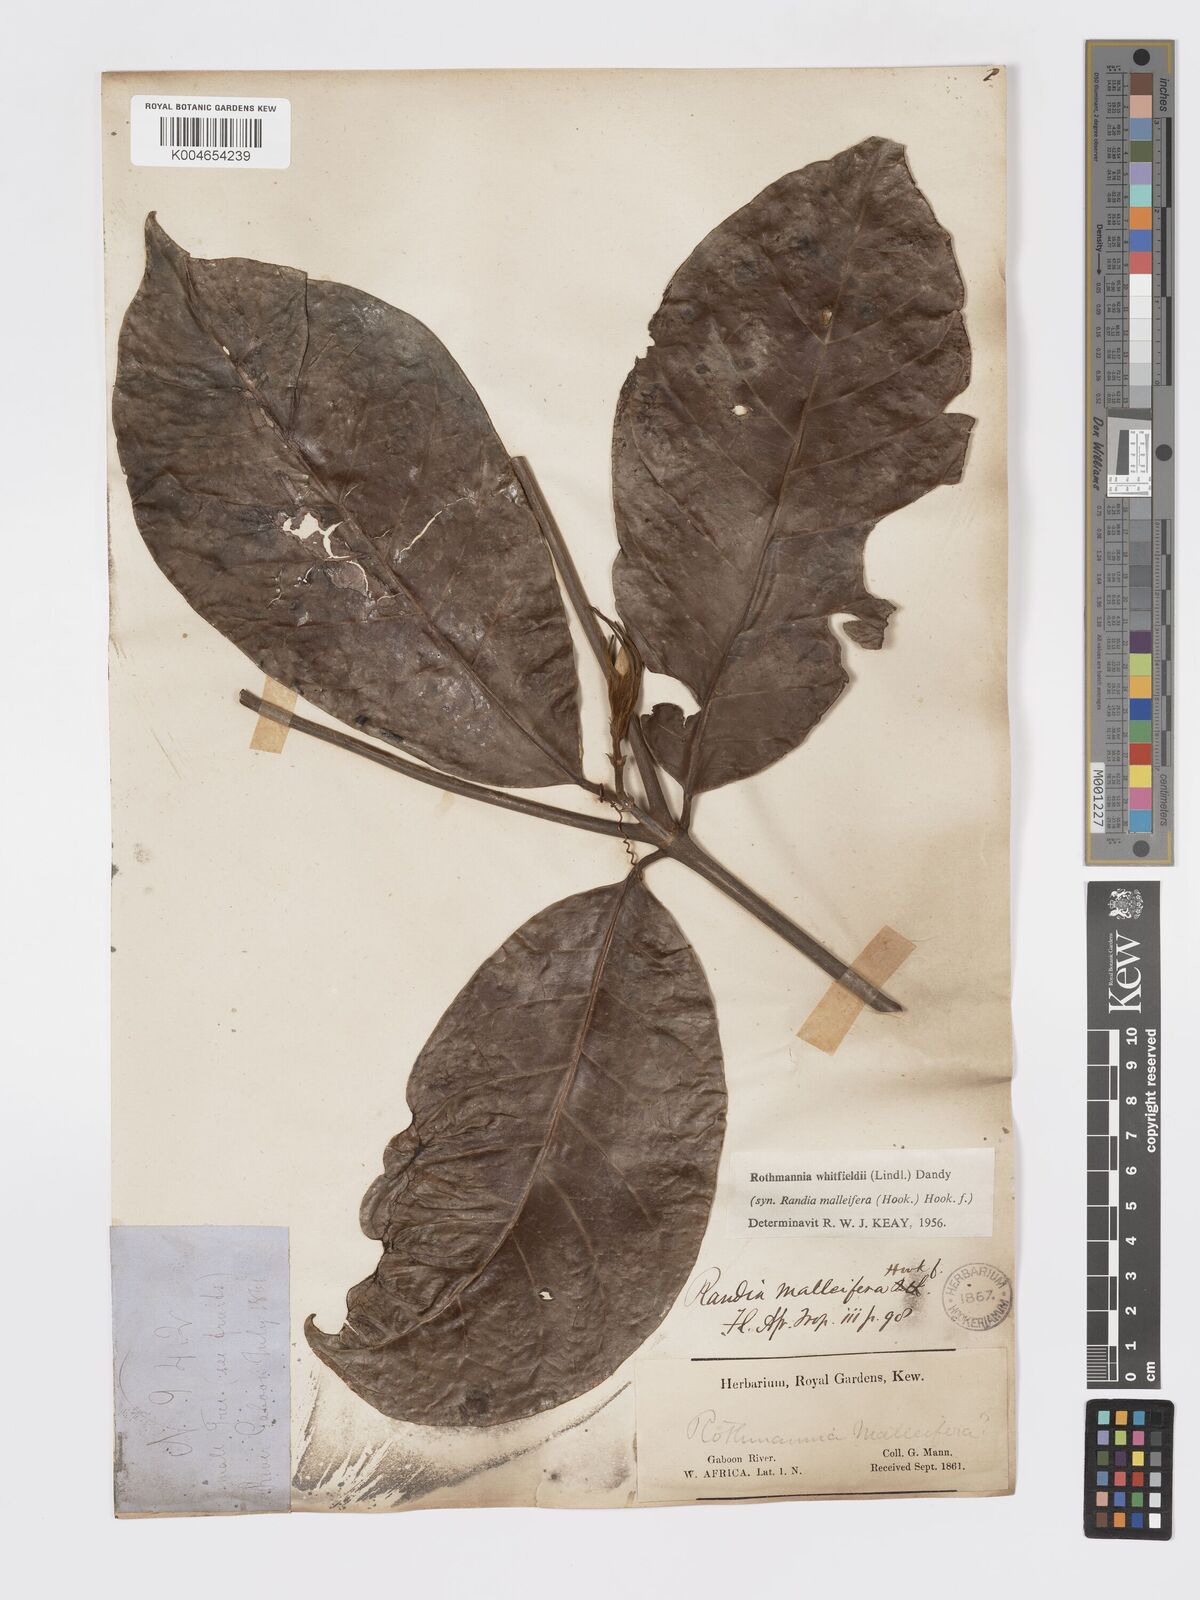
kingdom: Plantae
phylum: Tracheophyta
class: Magnoliopsida
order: Gentianales
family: Rubiaceae
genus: Rothmannia
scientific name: Rothmannia whitfieldii
